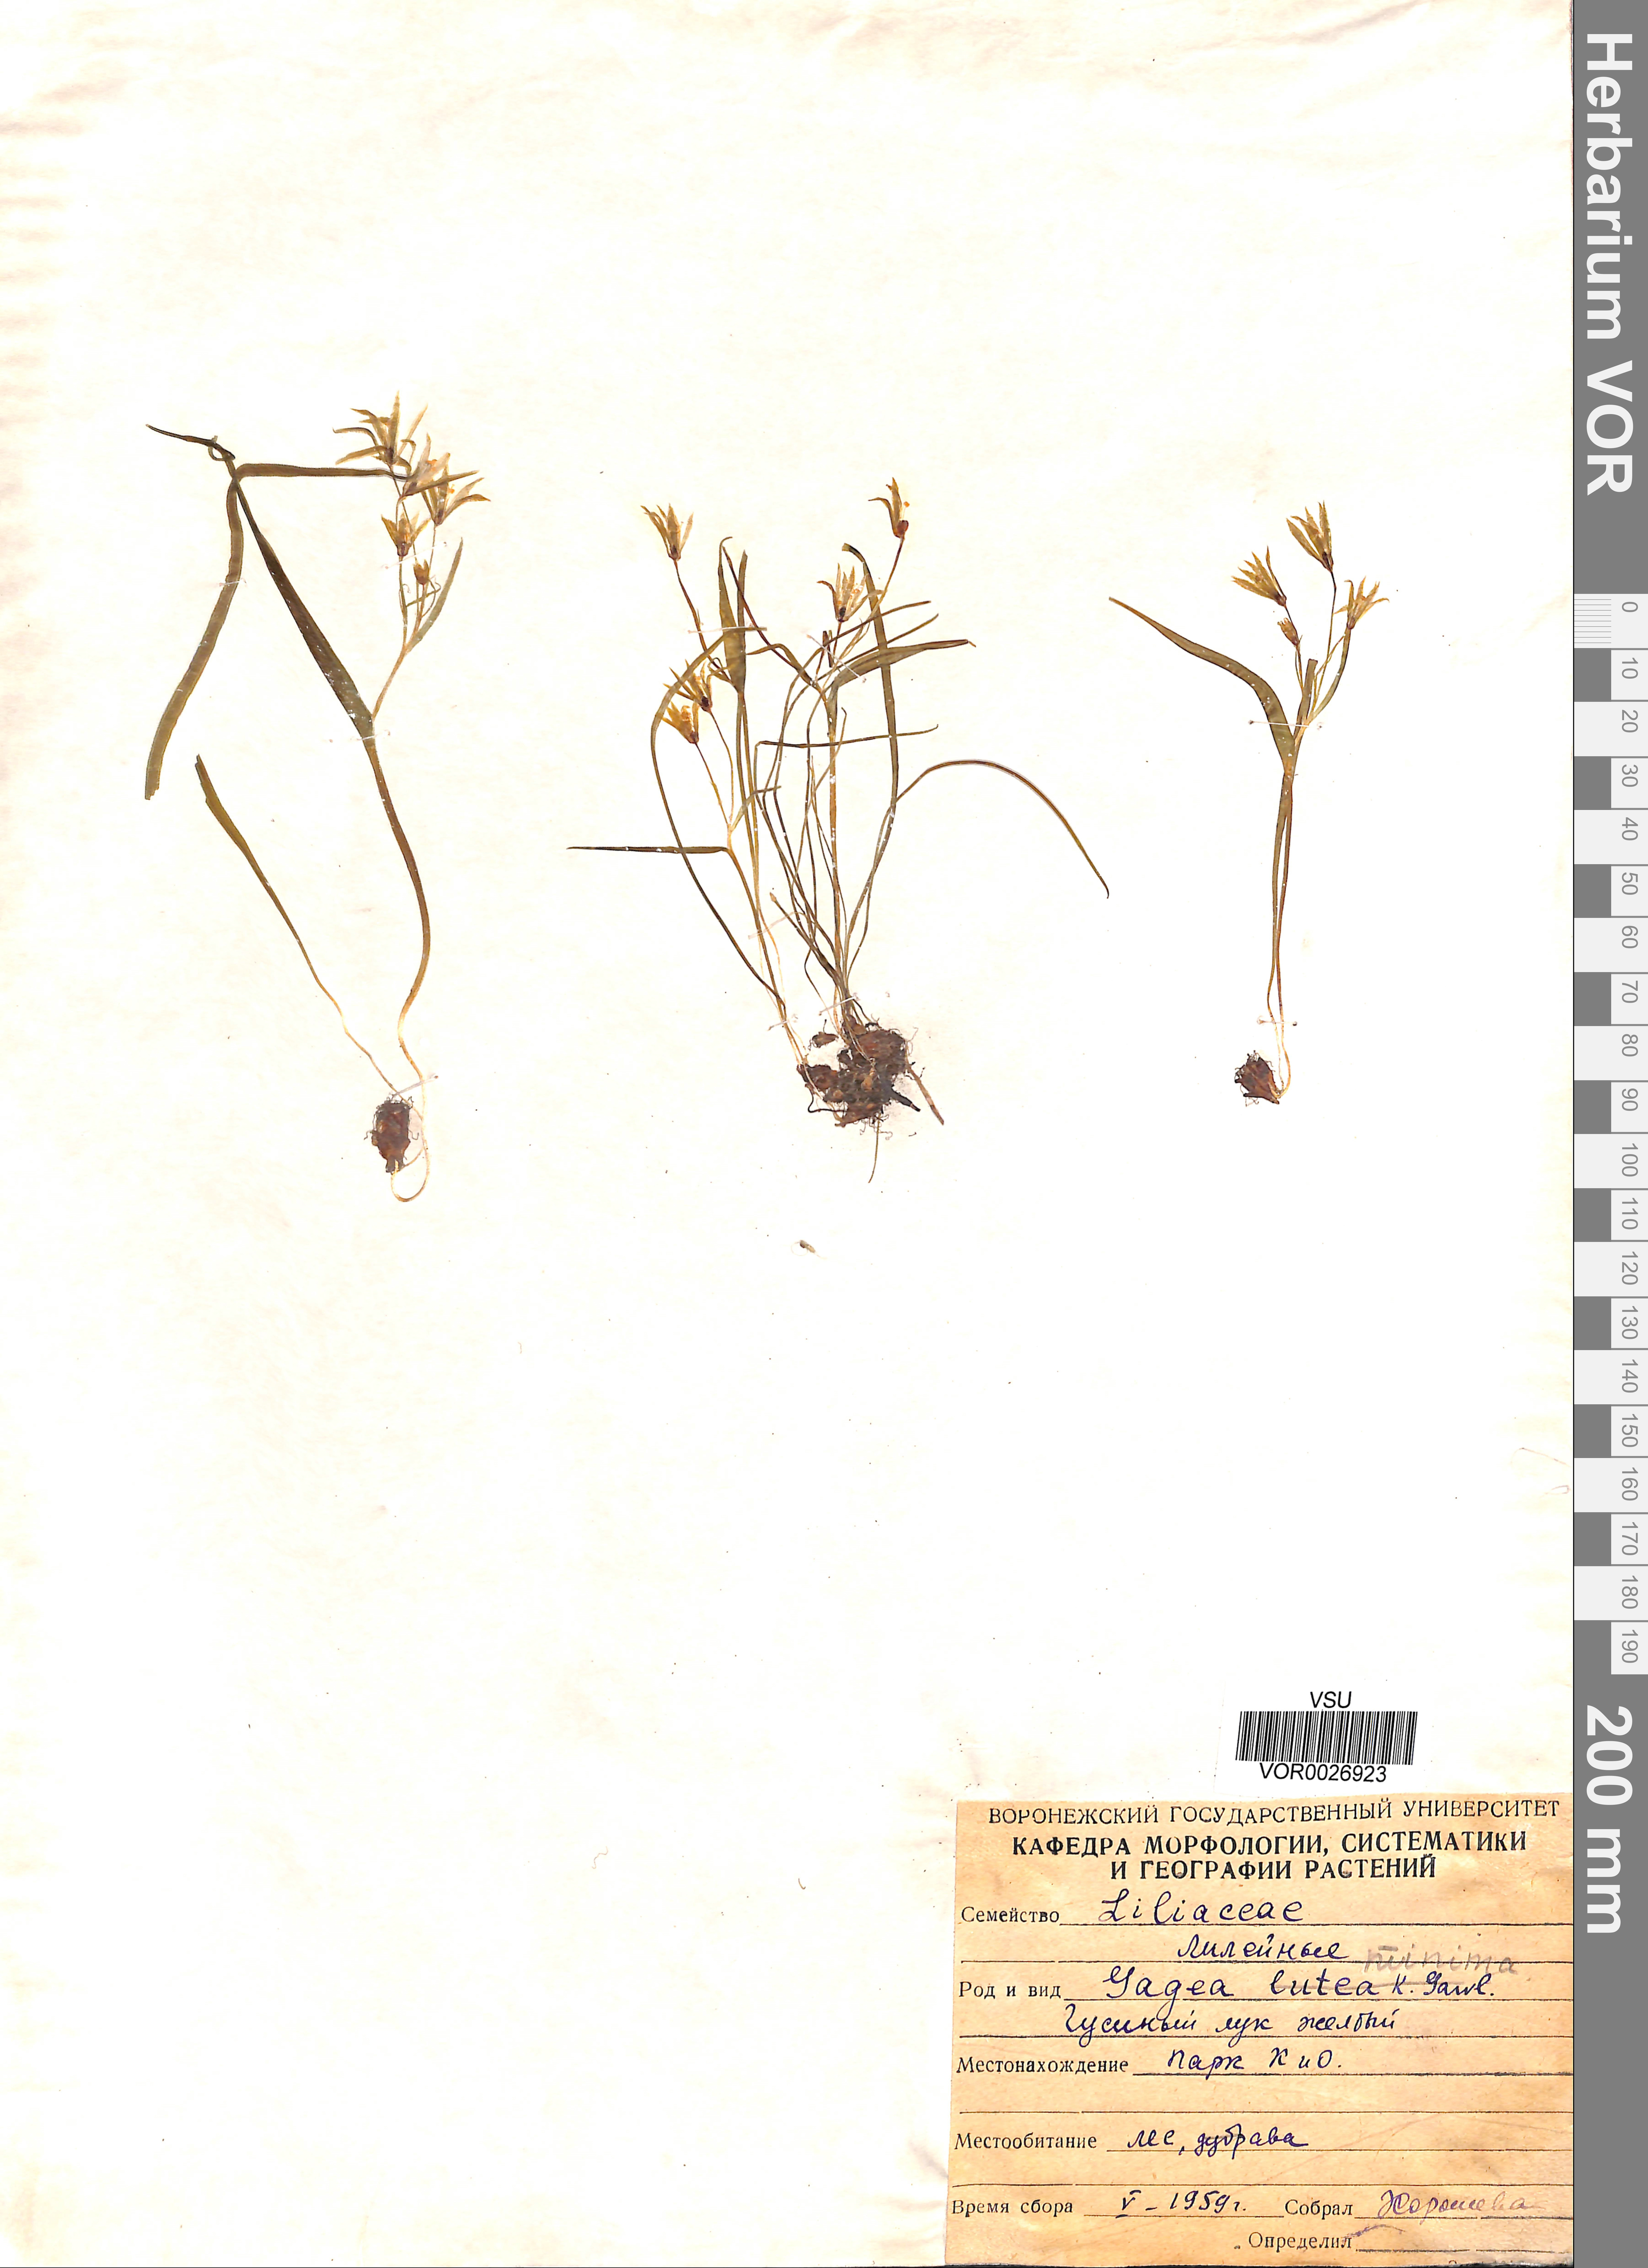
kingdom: Plantae
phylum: Tracheophyta
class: Liliopsida
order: Liliales
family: Liliaceae
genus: Gagea
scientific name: Gagea minima
